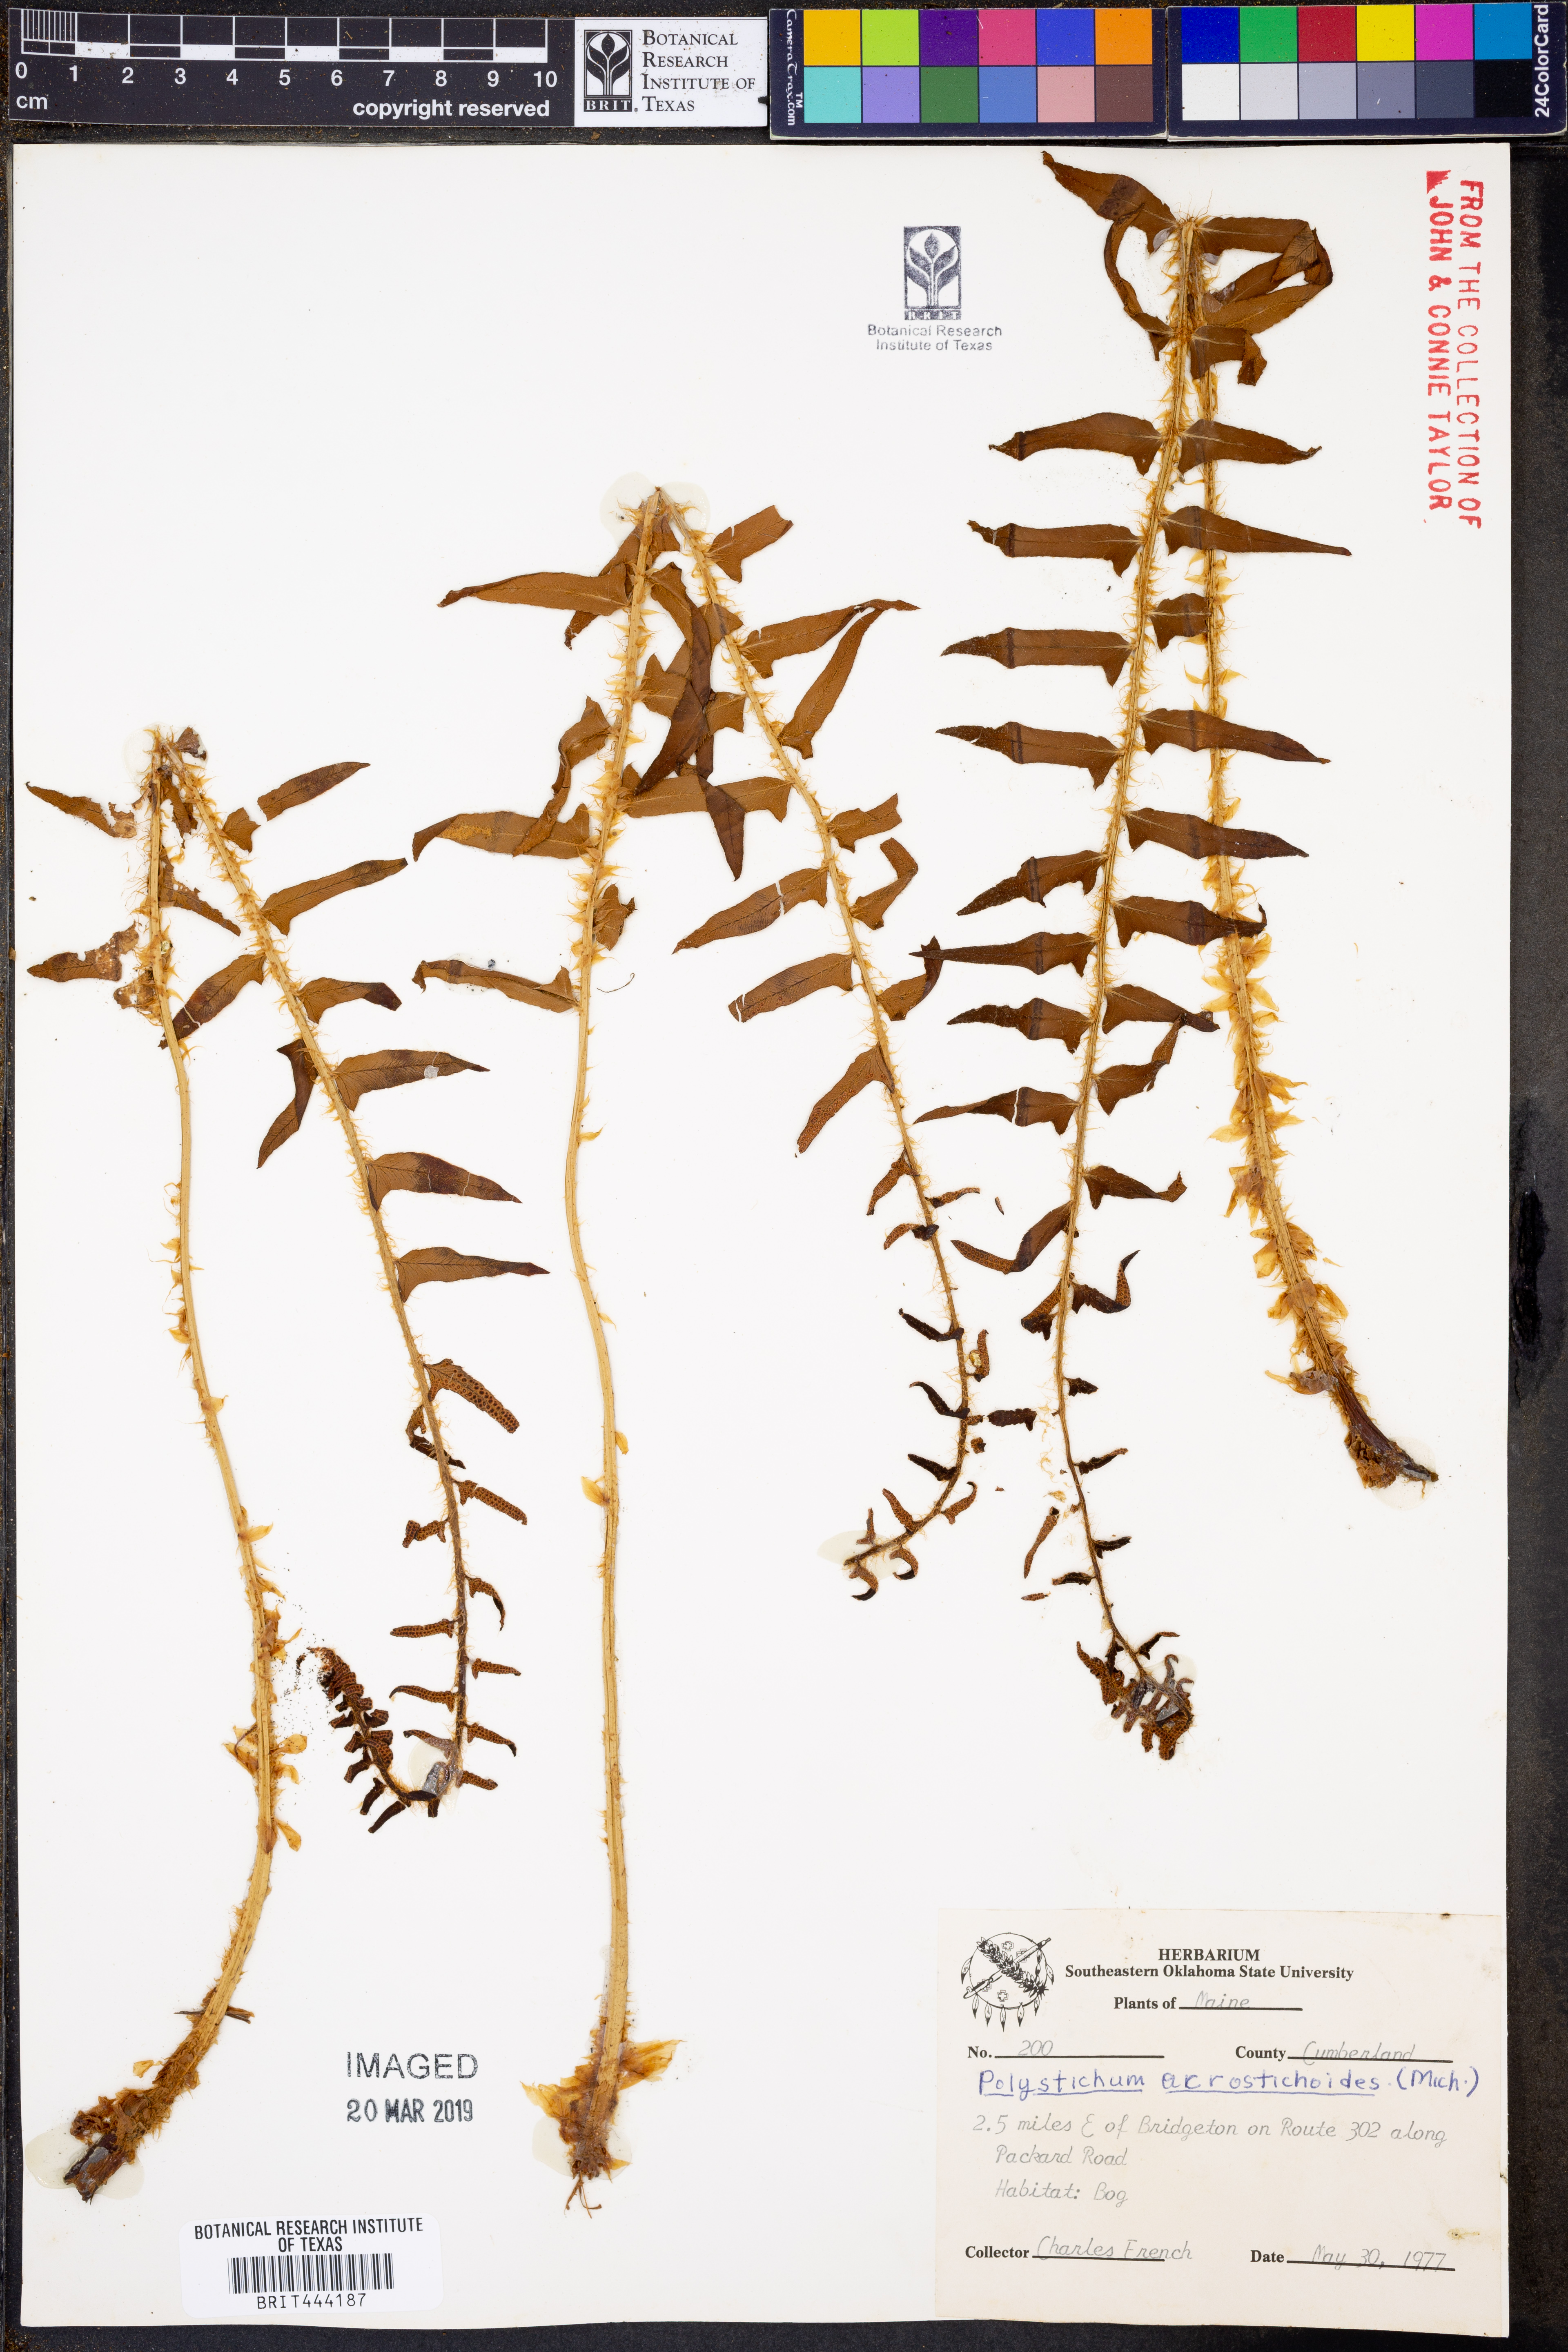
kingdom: Plantae
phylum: Tracheophyta
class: Polypodiopsida
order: Polypodiales
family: Dryopteridaceae
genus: Polystichum
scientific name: Polystichum acrostichoides
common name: Christmas fern
